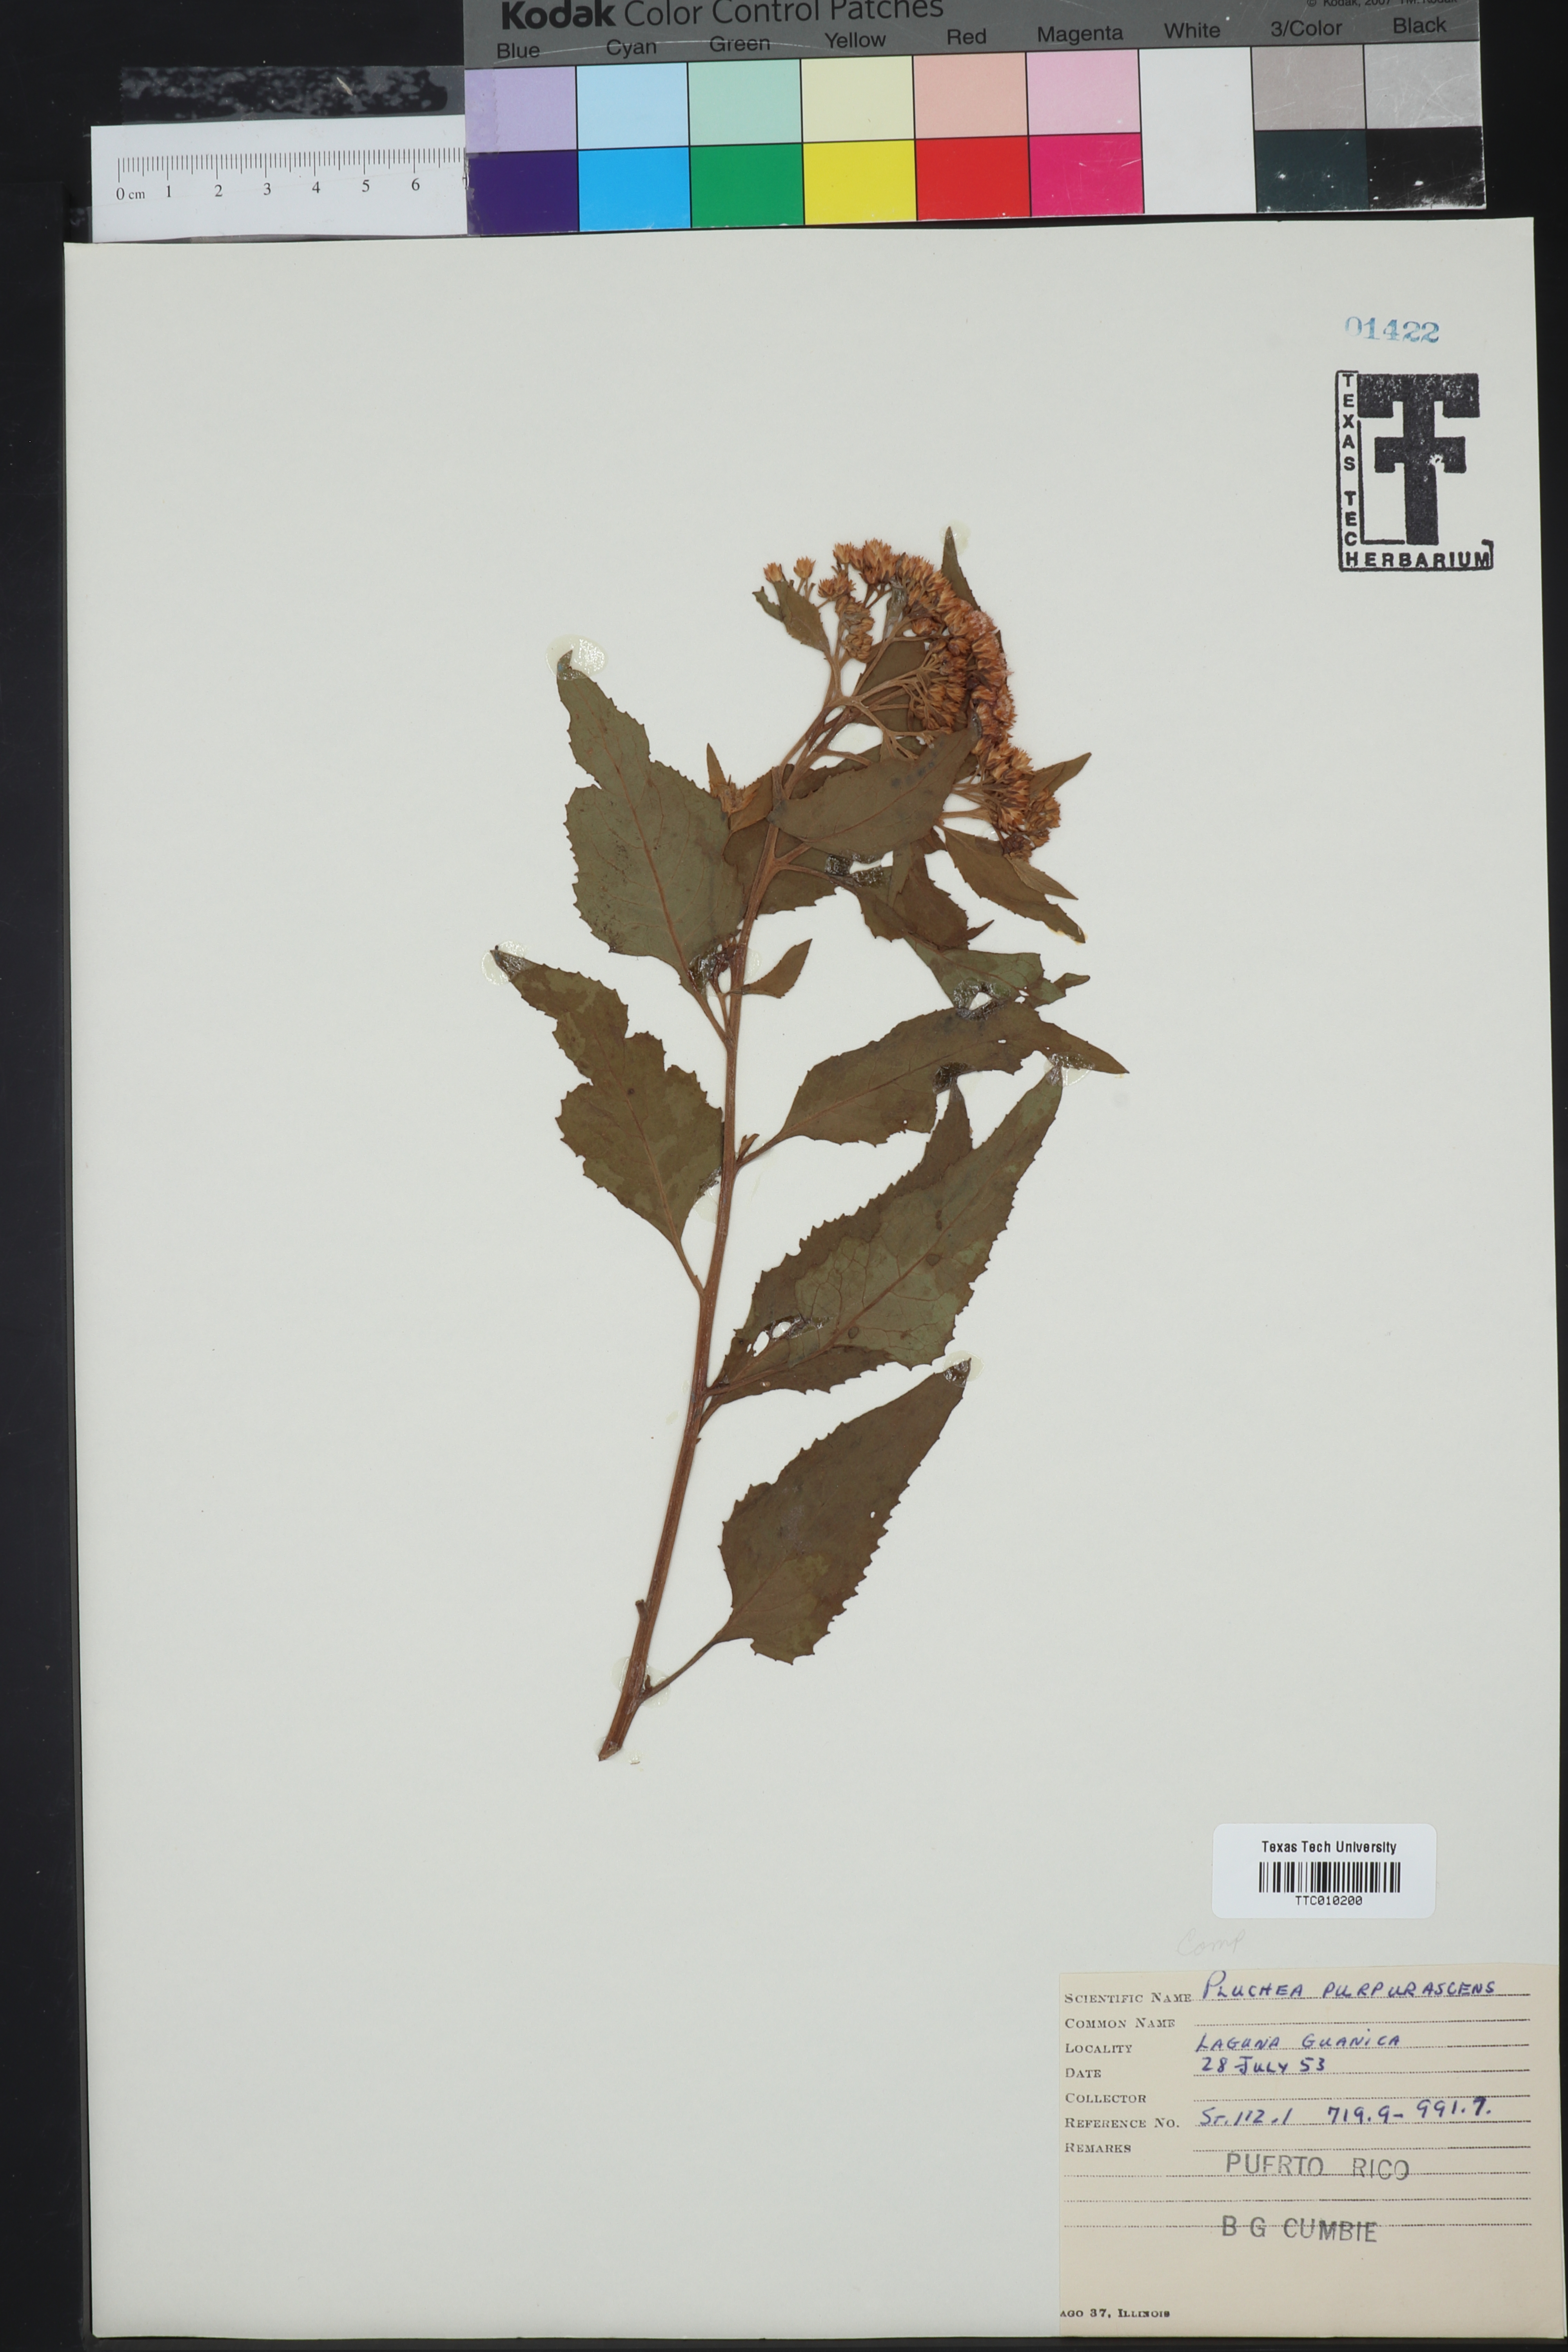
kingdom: Plantae
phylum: Tracheophyta
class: Magnoliopsida
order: Asterales
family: Asteraceae
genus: Pluchea
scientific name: Pluchea odorata
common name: Saltmarsh fleabane
